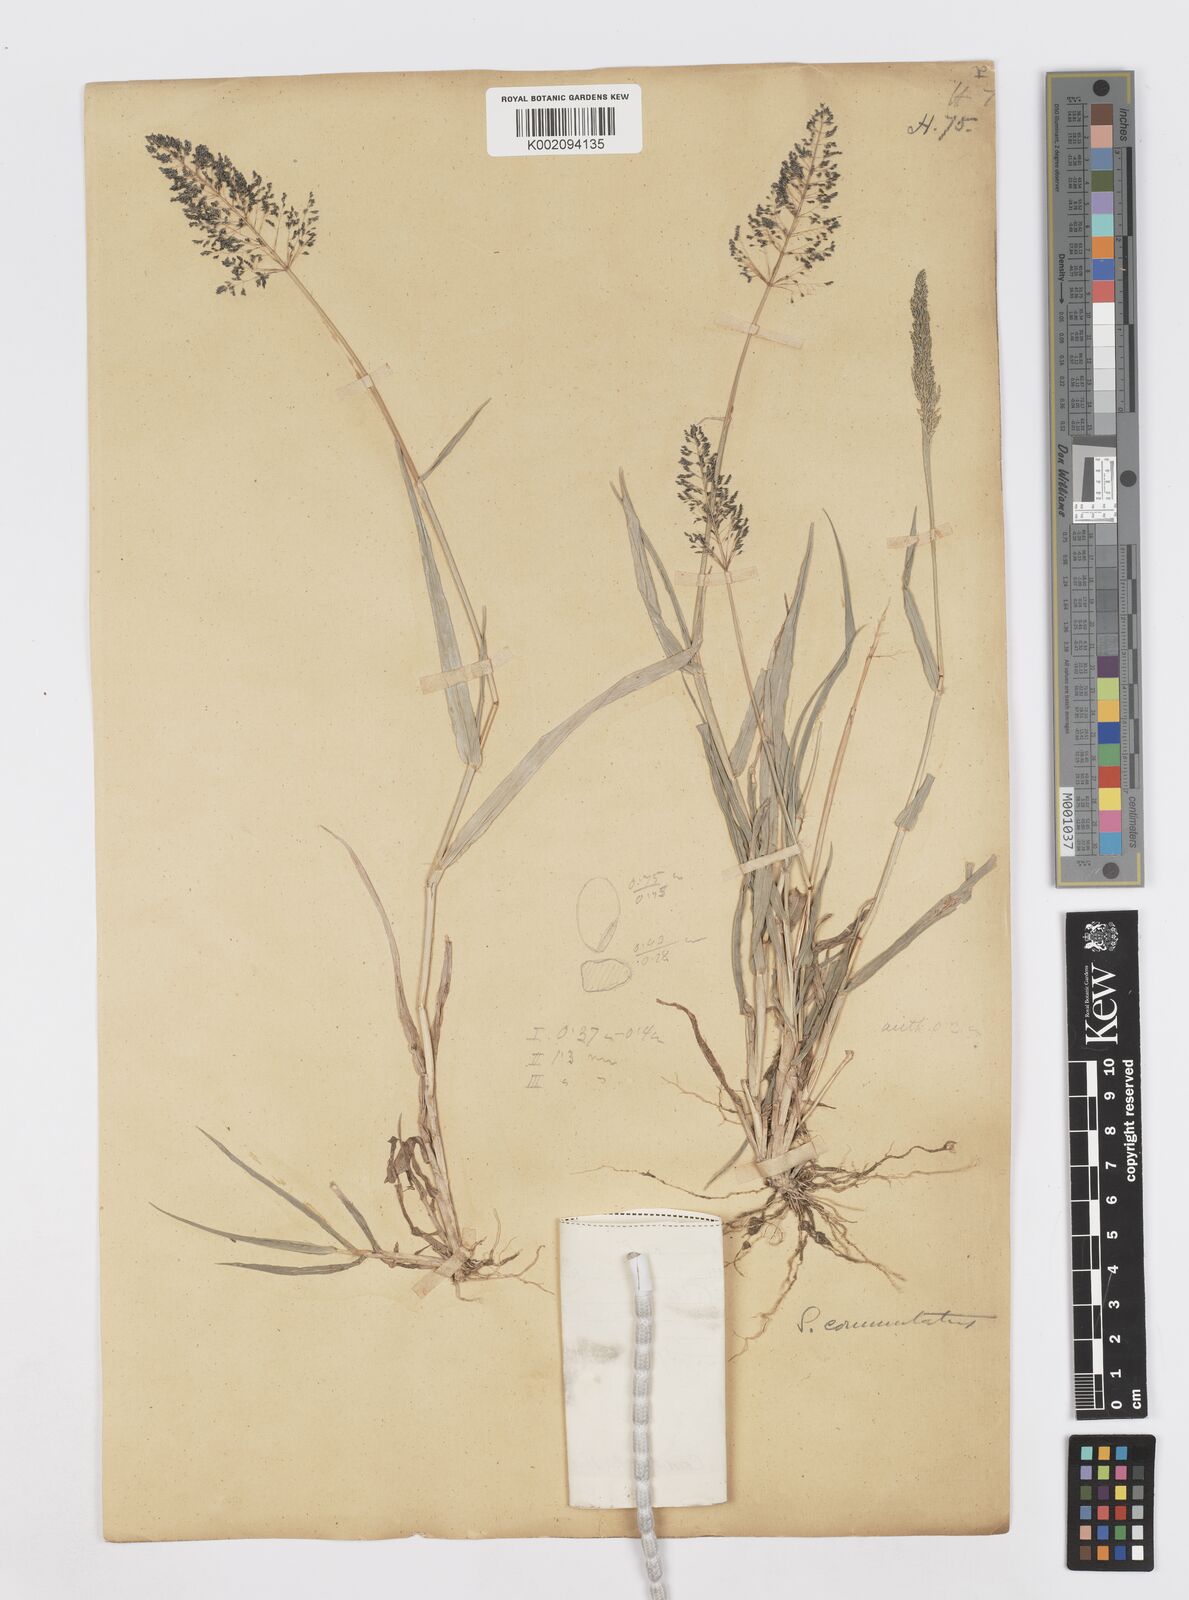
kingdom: Plantae
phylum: Tracheophyta
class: Liliopsida
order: Poales
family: Poaceae
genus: Sporobolus
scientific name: Sporobolus coromandelianus
